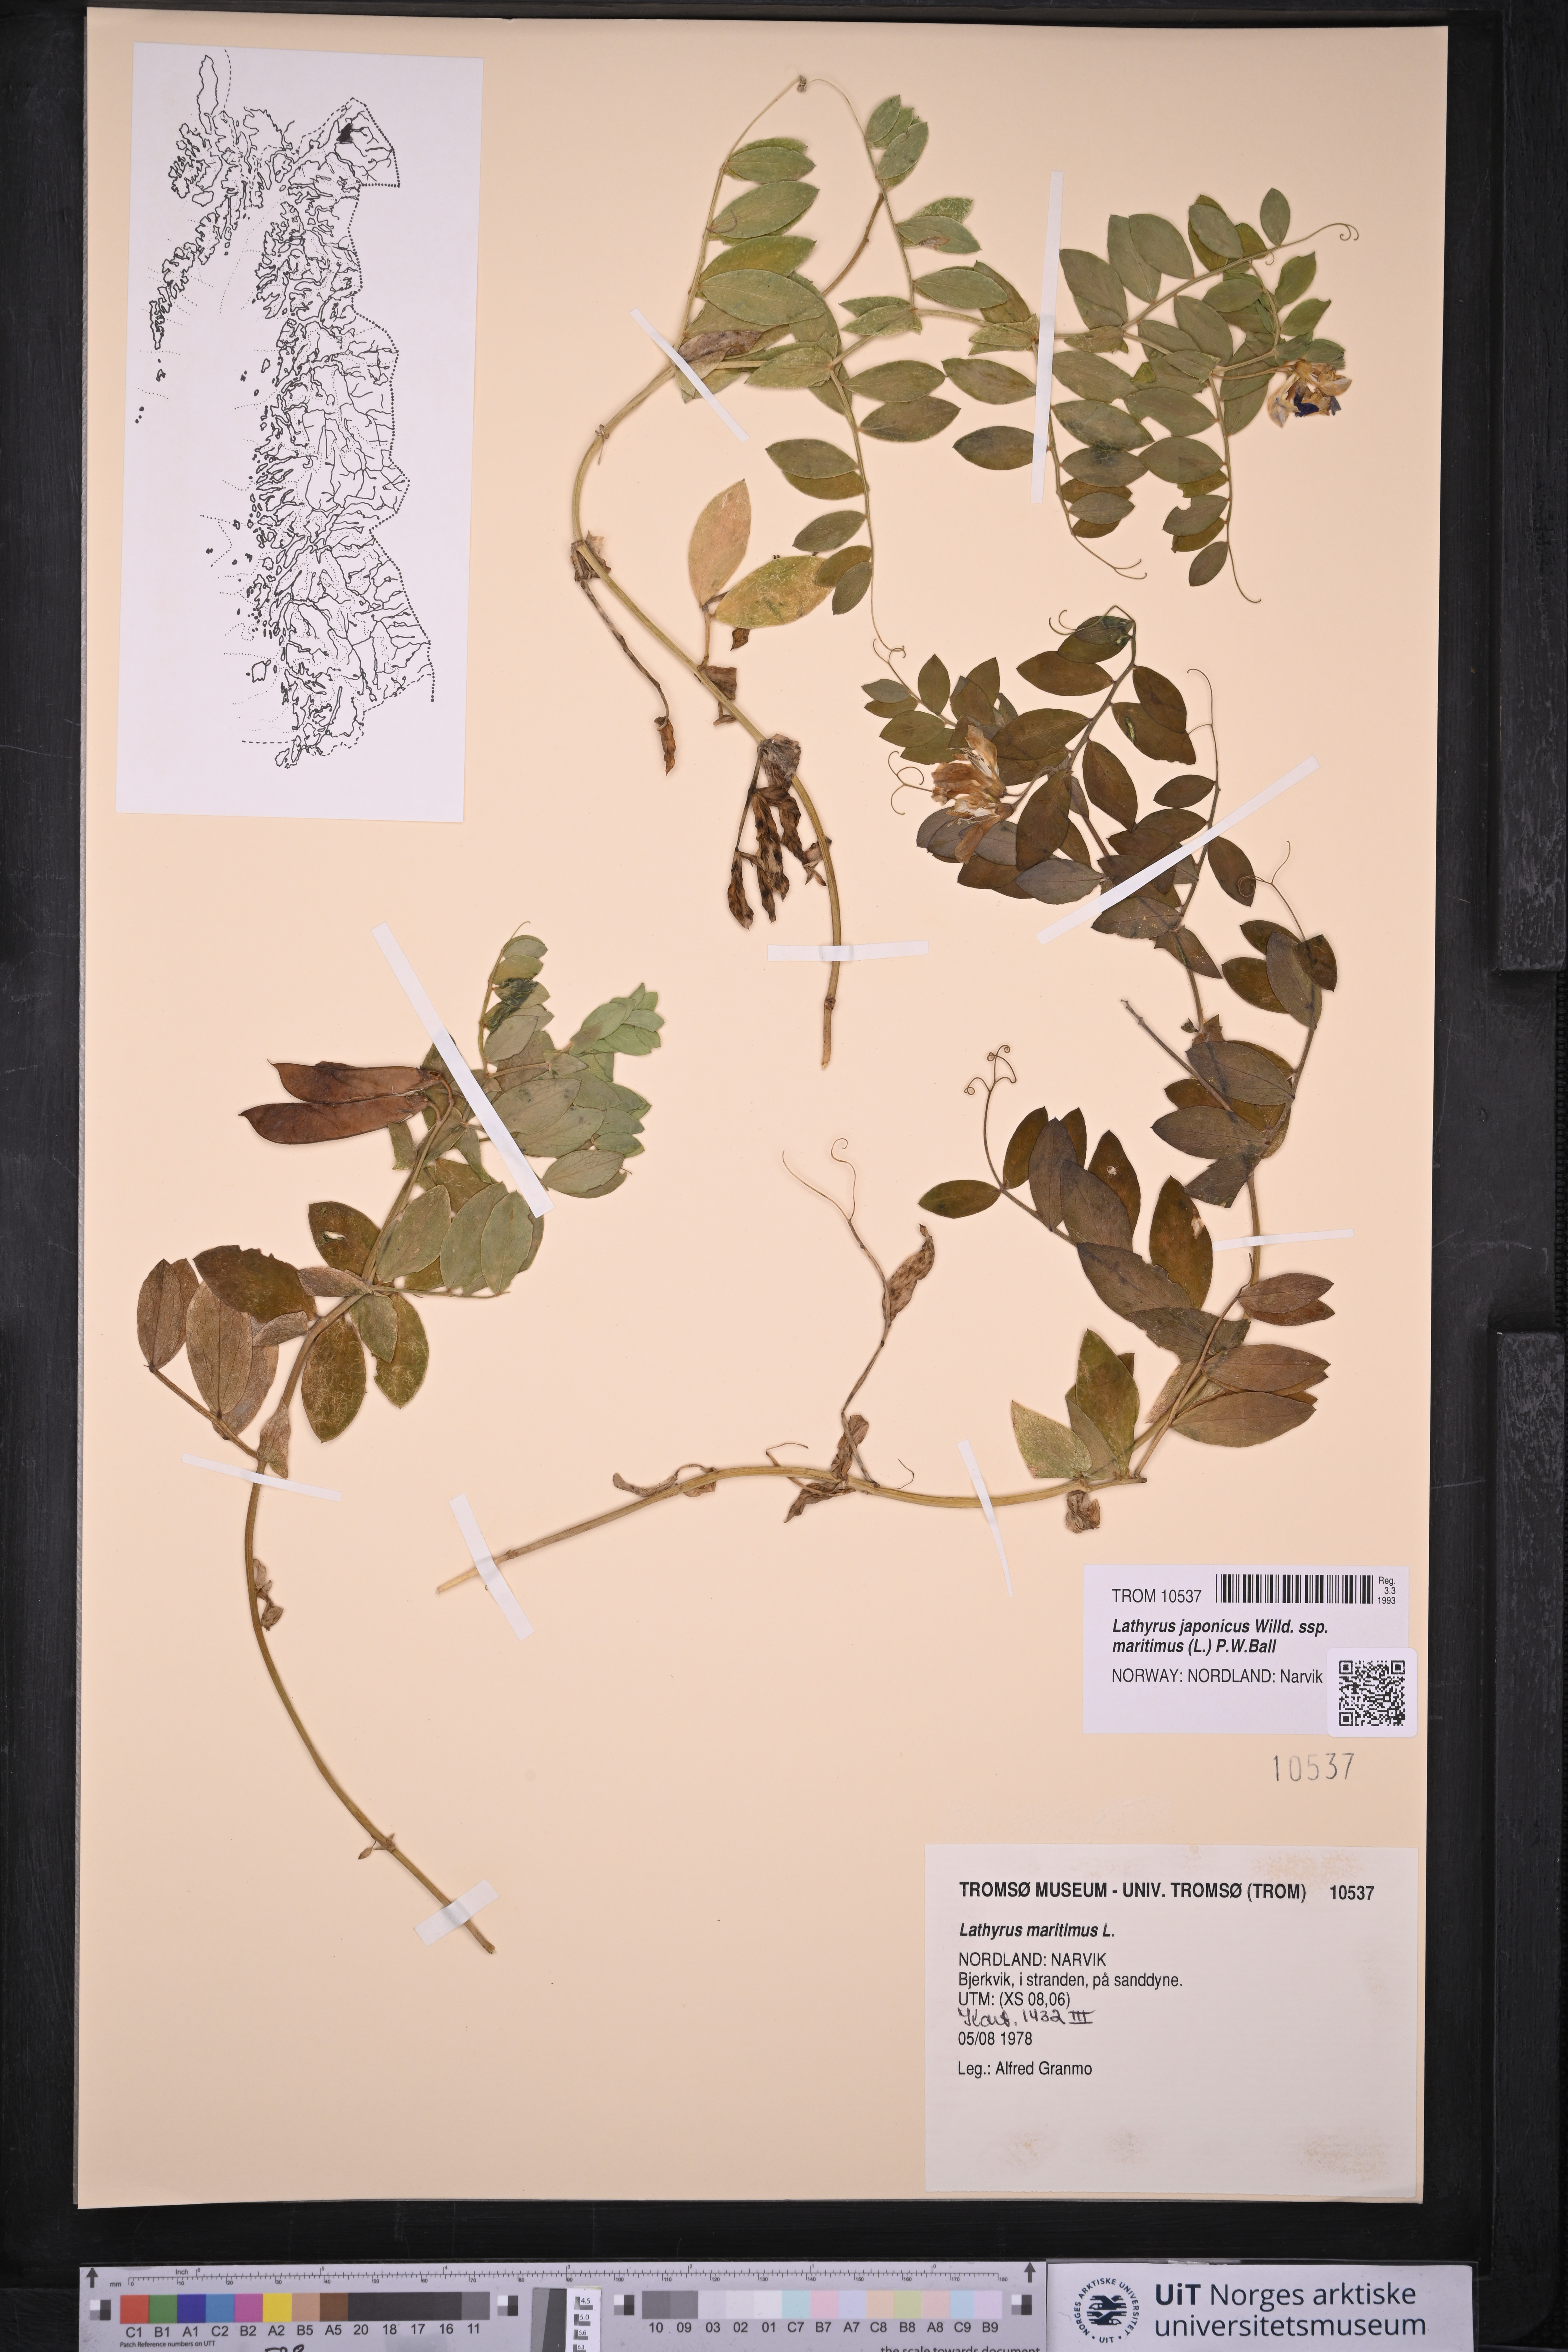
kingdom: Plantae
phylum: Tracheophyta
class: Magnoliopsida
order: Fabales
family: Fabaceae
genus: Lathyrus
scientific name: Lathyrus japonicus
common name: Sea pea
